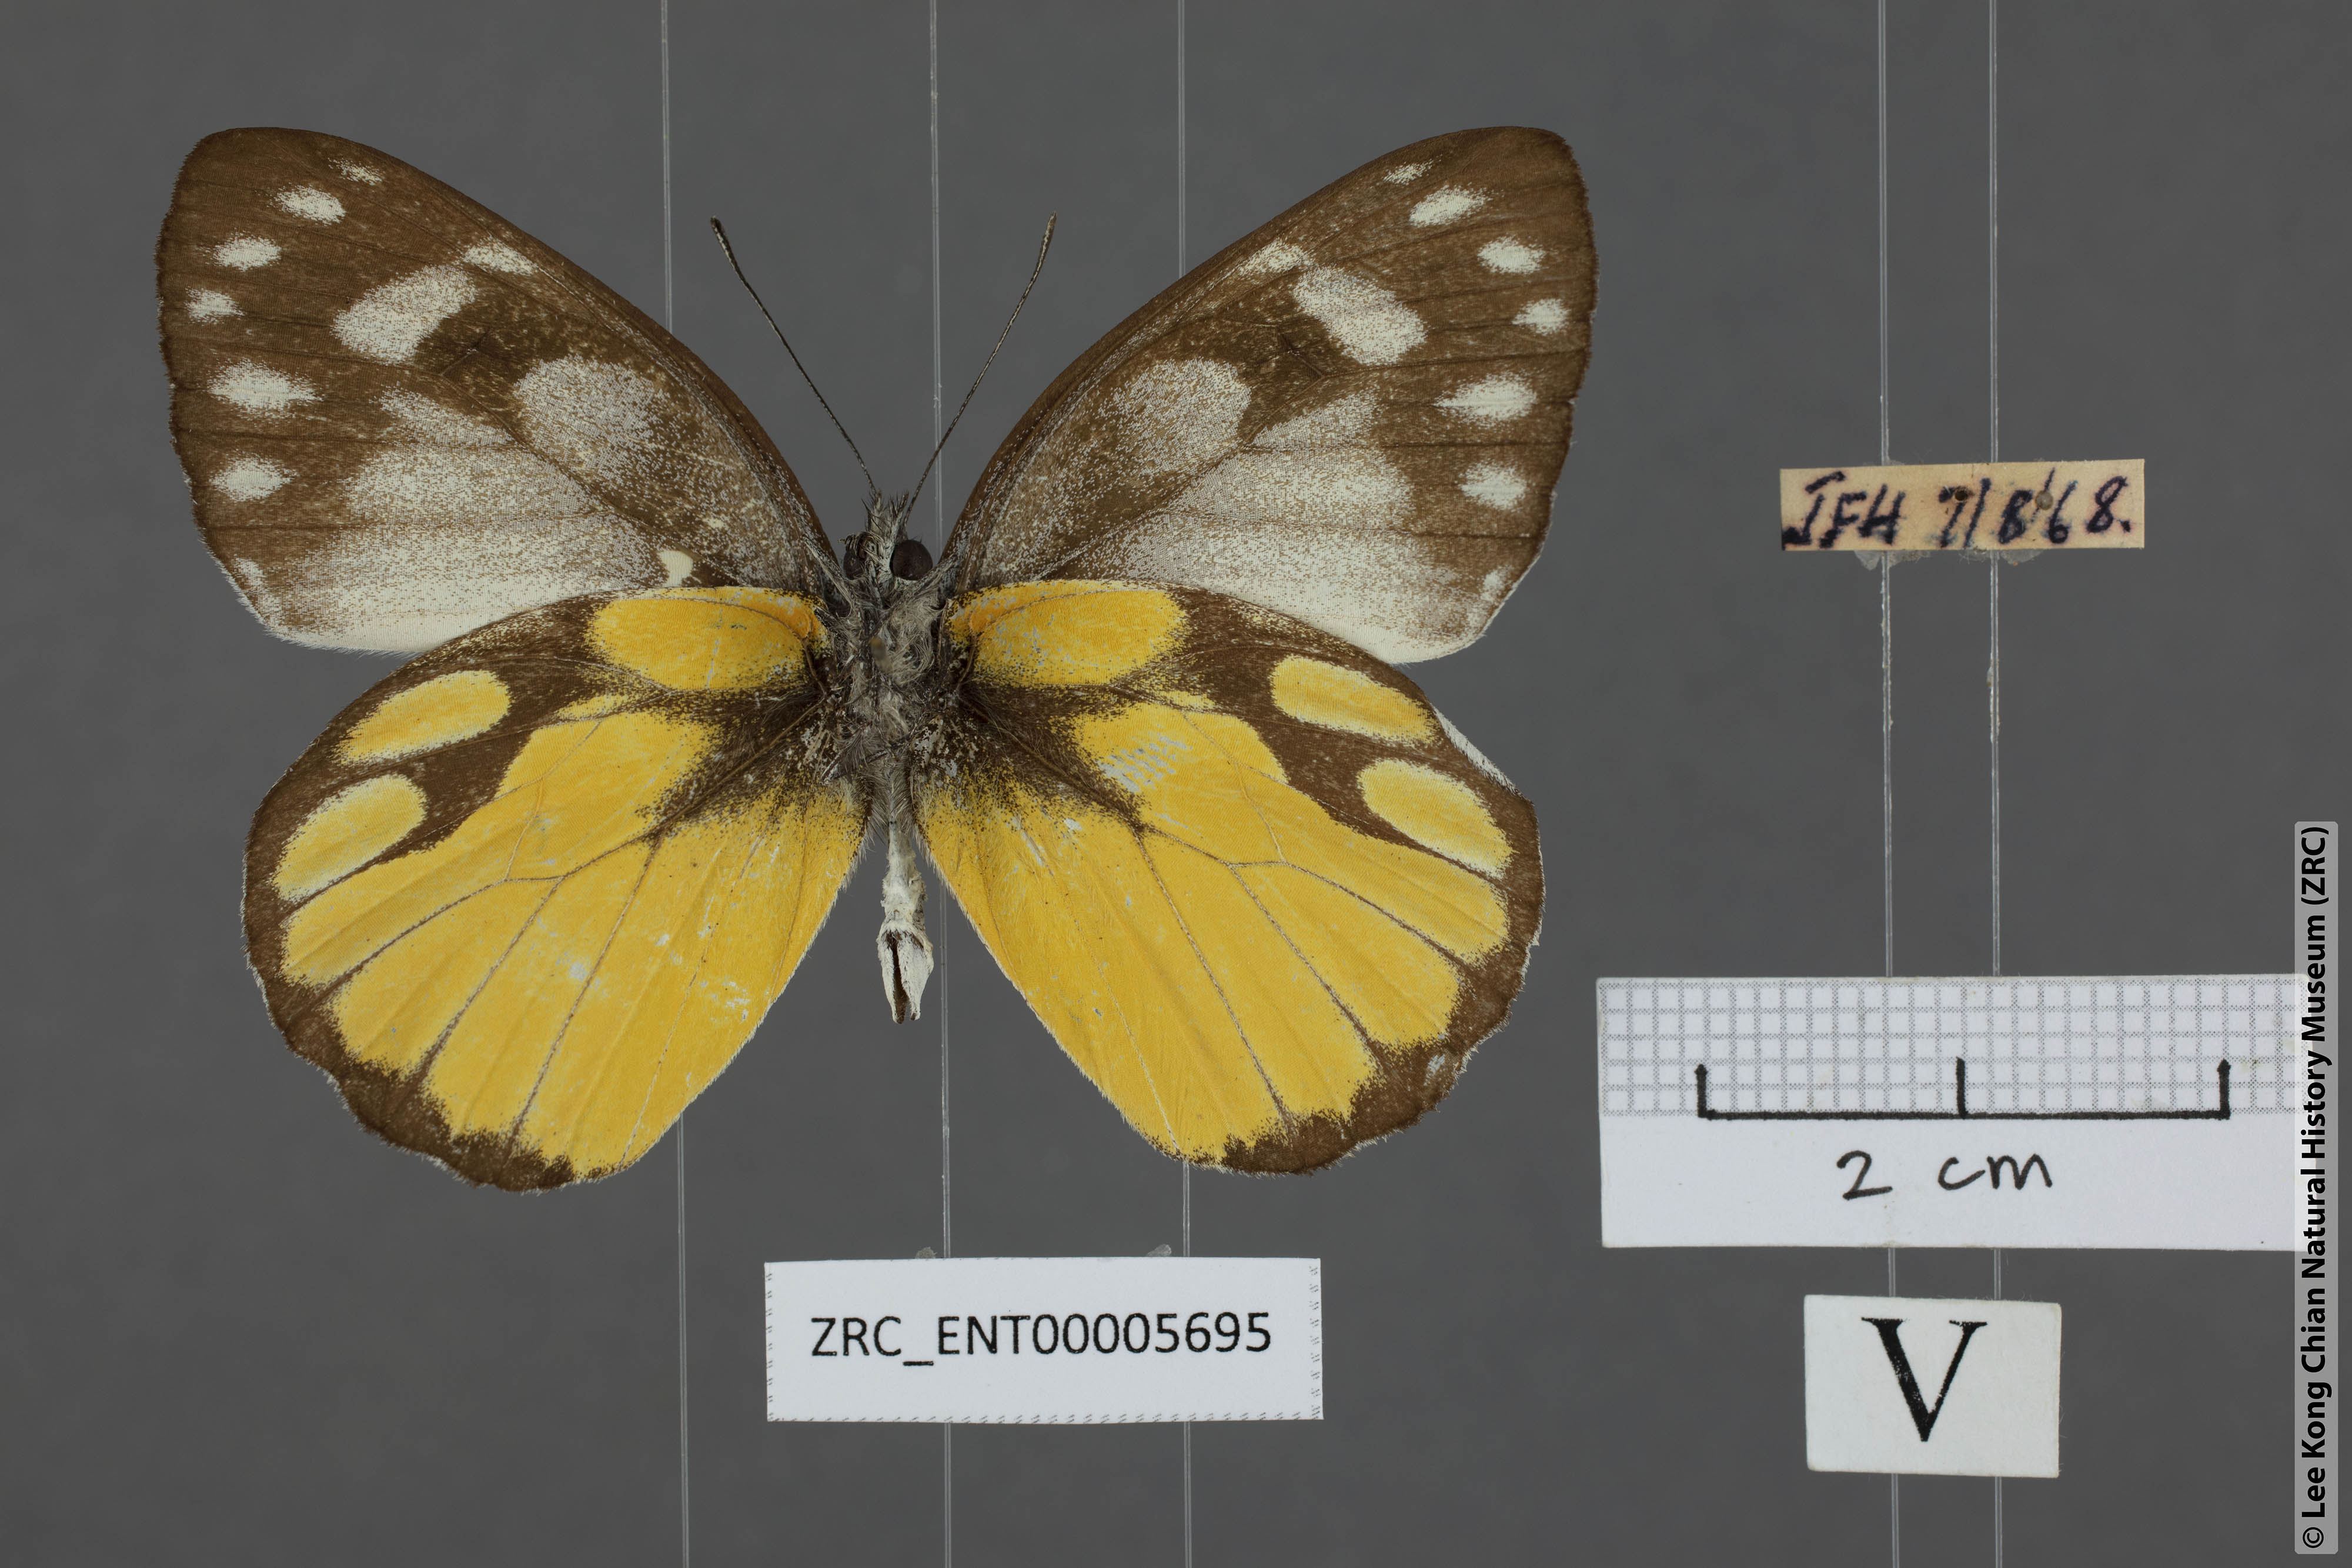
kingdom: Animalia
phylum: Arthropoda
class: Insecta
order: Lepidoptera
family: Pieridae
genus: Delias
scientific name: Delias georgina
